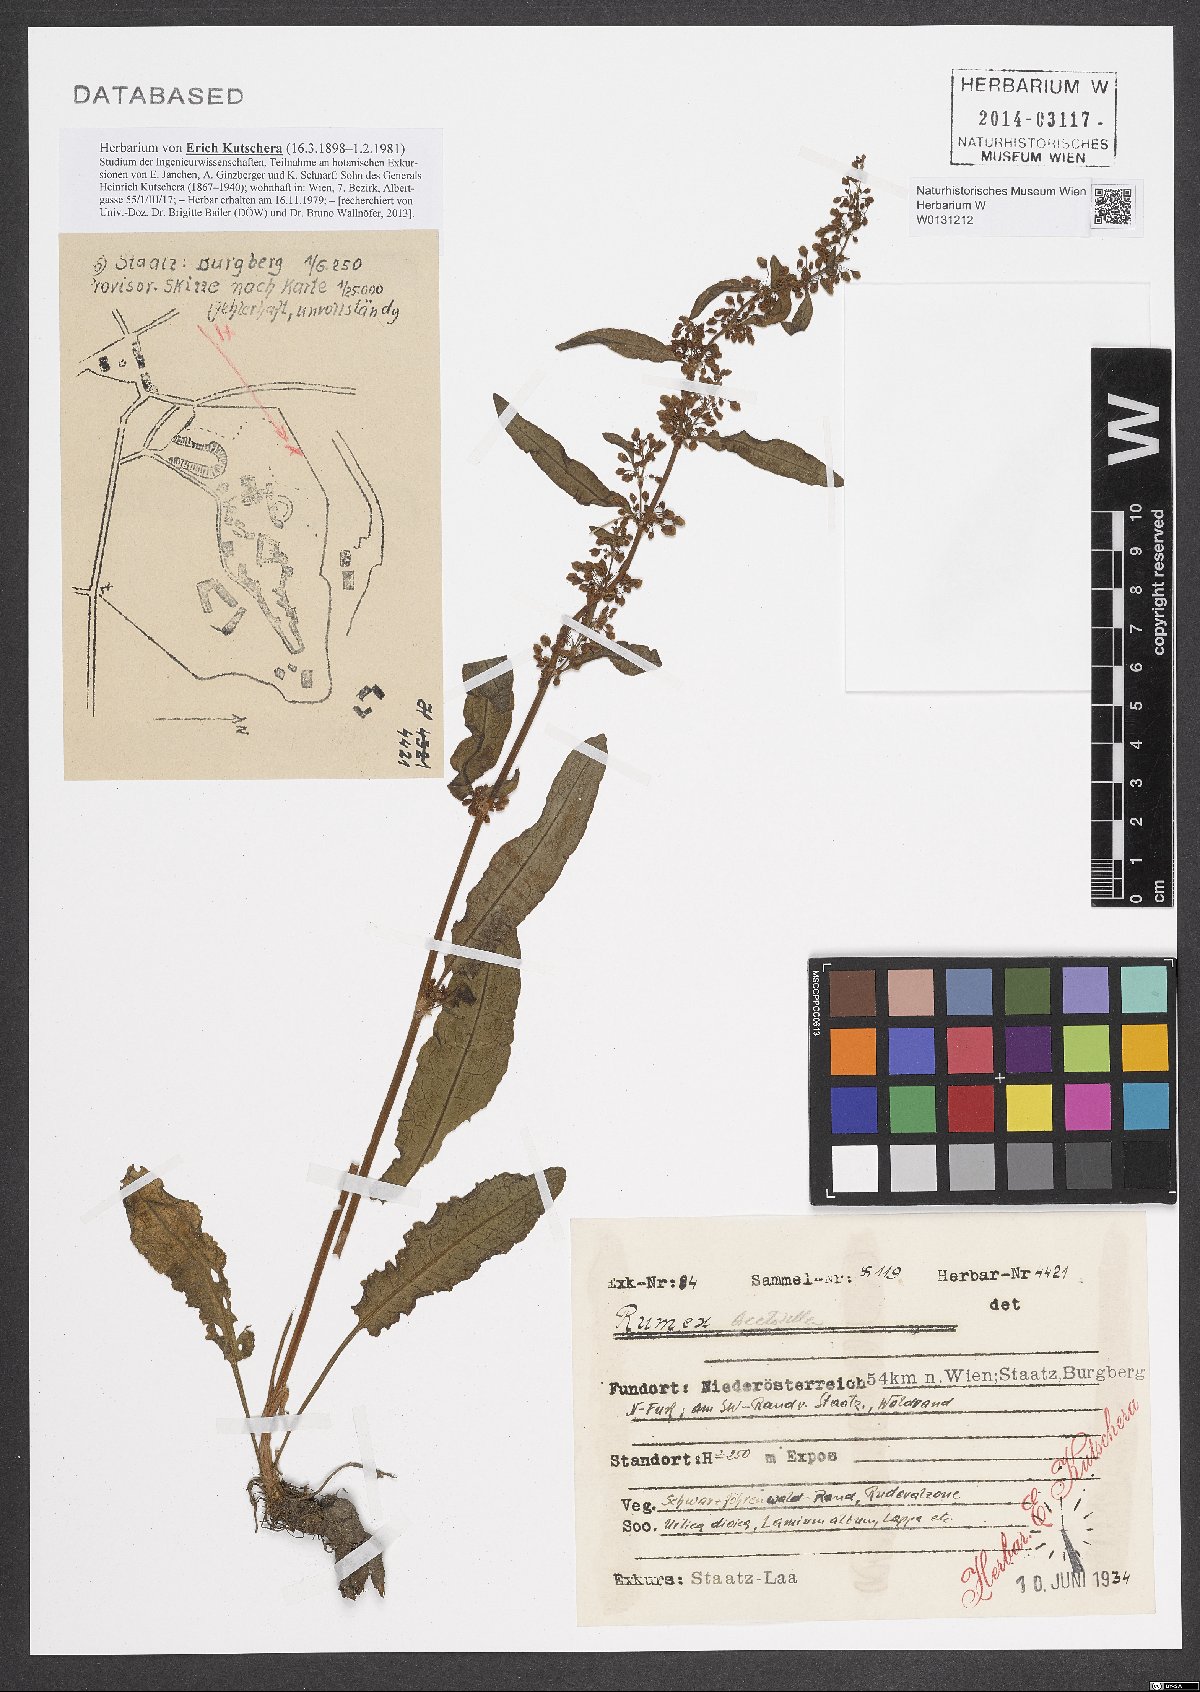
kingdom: Plantae
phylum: Tracheophyta
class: Magnoliopsida
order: Caryophyllales
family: Polygonaceae
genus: Rumex
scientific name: Rumex crispus
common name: Curled dock
